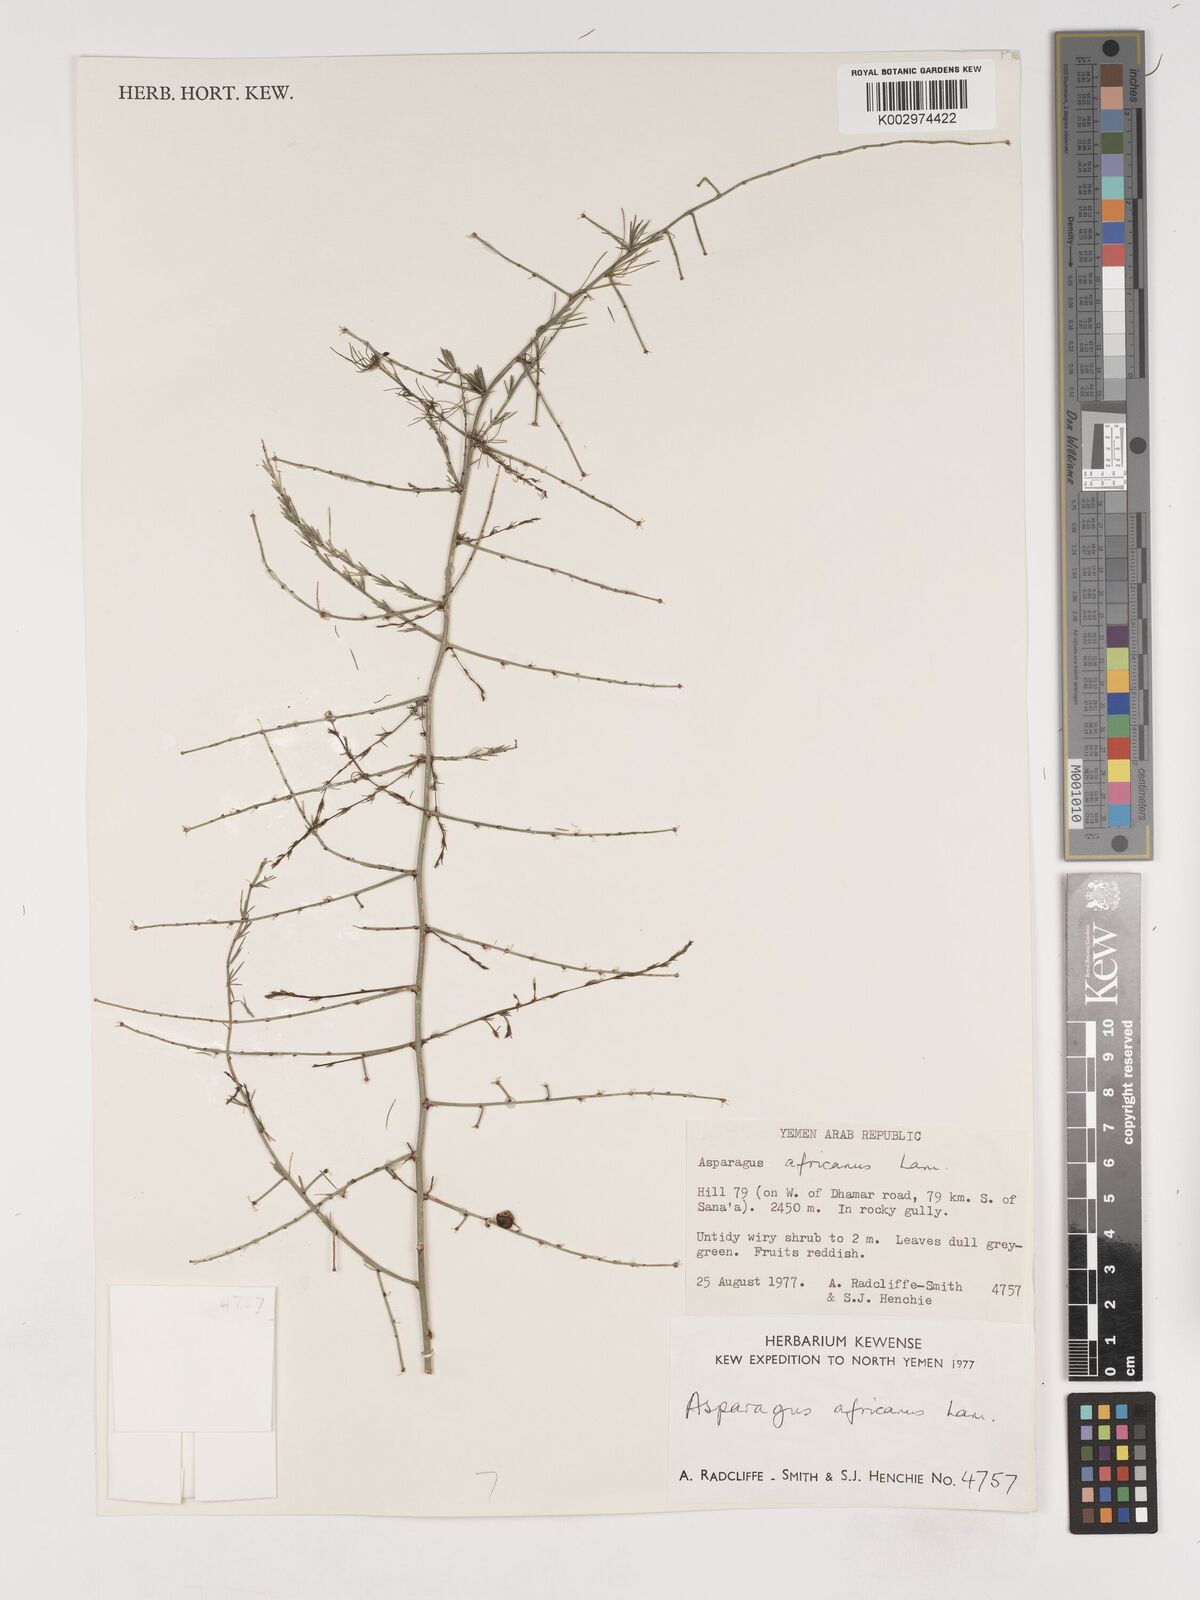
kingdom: Plantae
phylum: Tracheophyta
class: Liliopsida
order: Asparagales
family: Asparagaceae
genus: Asparagus
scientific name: Asparagus africanus
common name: Asparagus-fern
